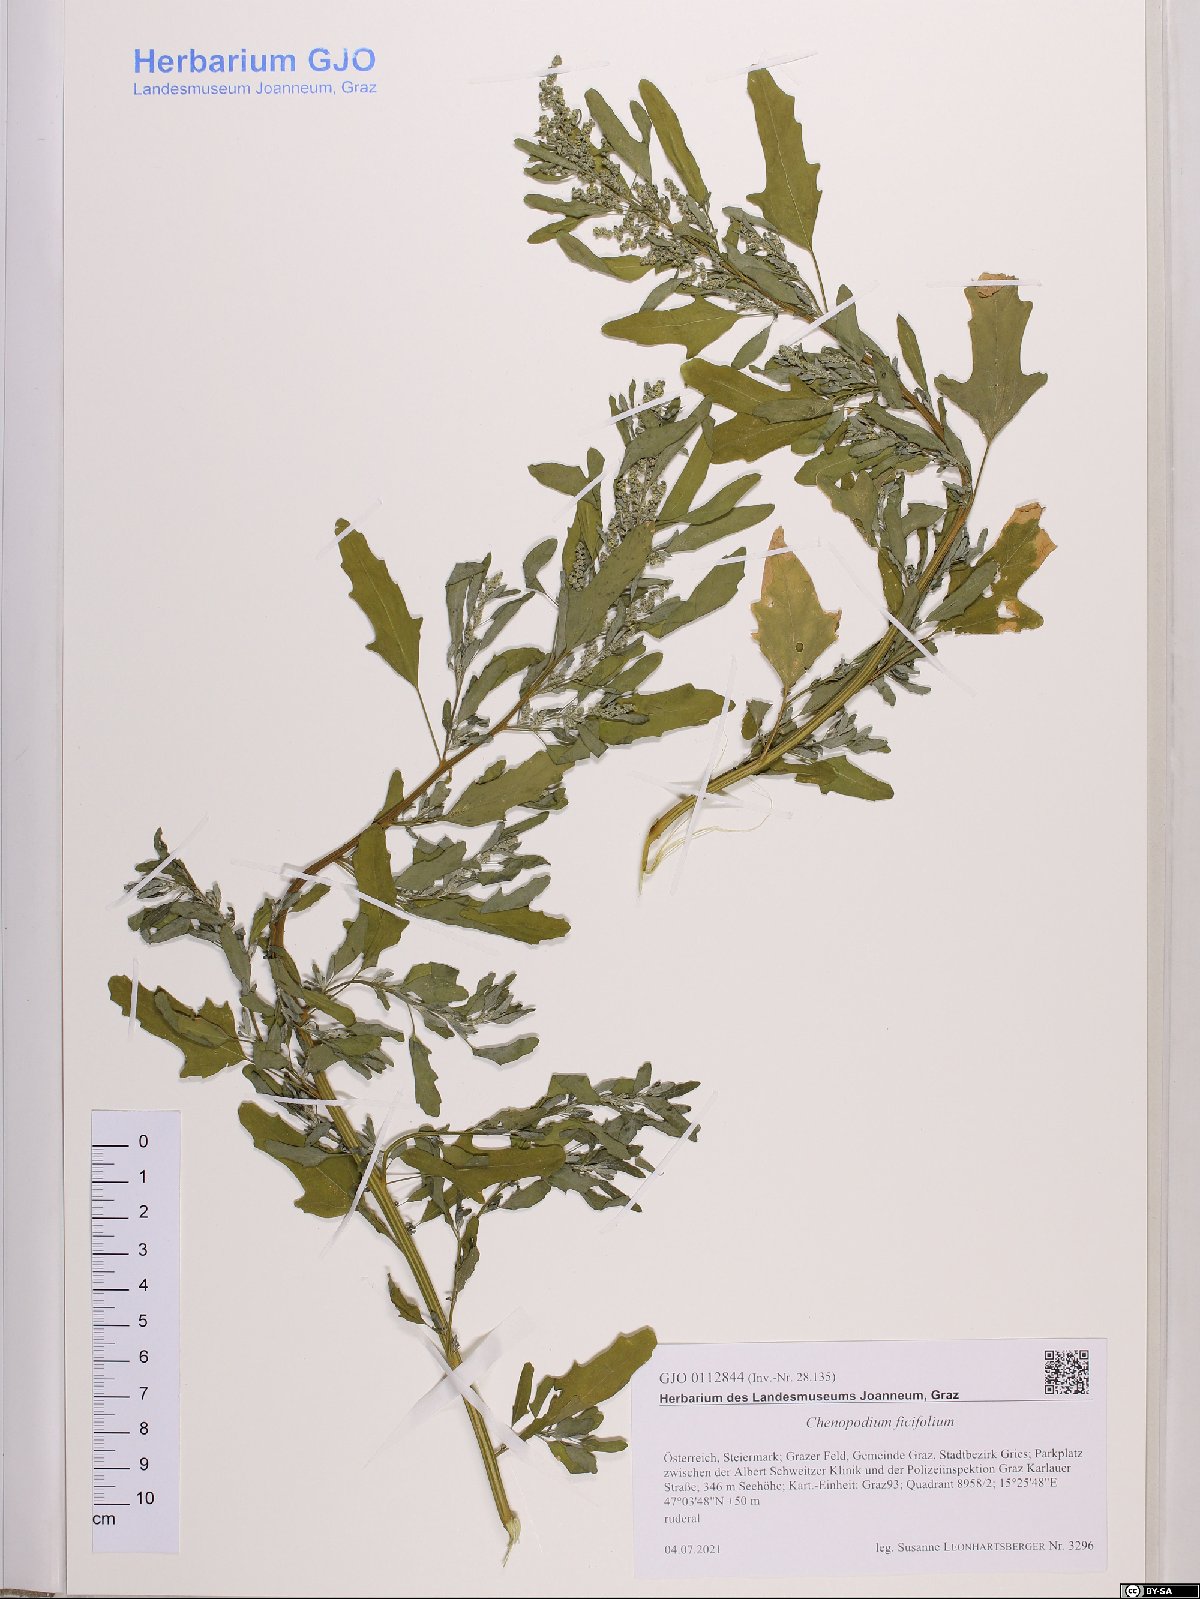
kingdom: Plantae
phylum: Tracheophyta
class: Magnoliopsida
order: Caryophyllales
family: Amaranthaceae
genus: Chenopodium
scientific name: Chenopodium ficifolium
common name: Fig-leaved goosefoot
